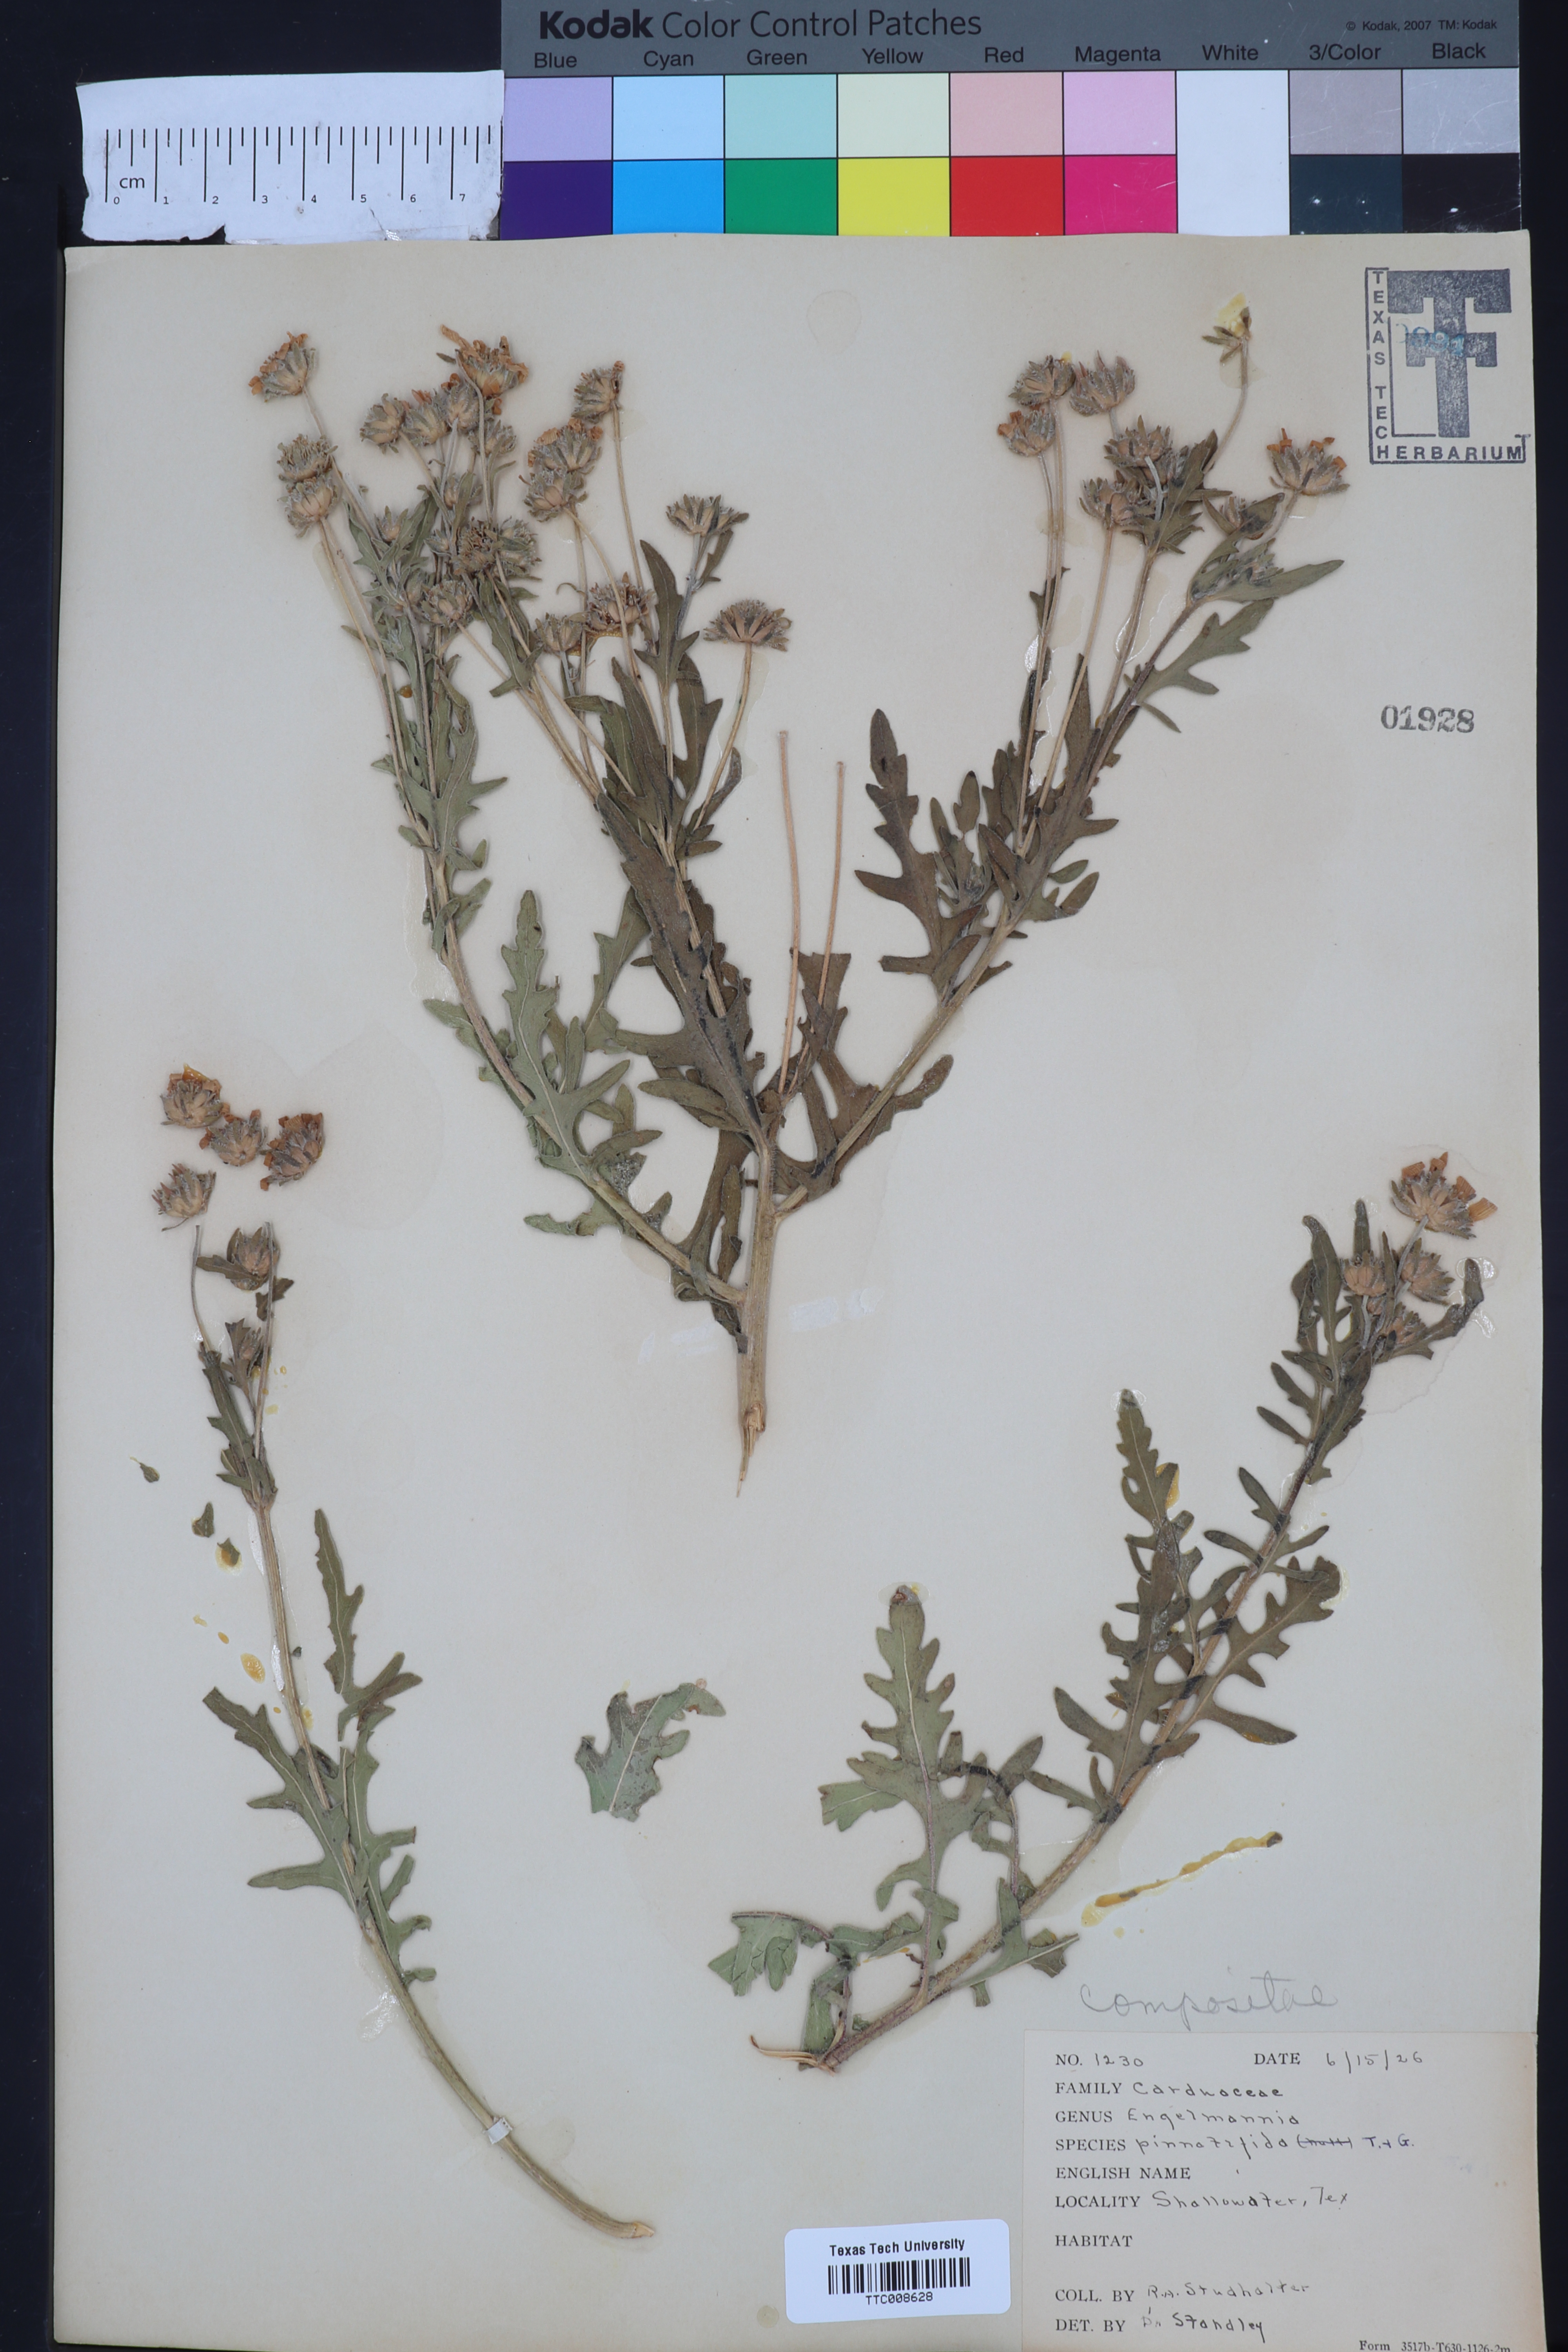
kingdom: Plantae
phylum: Tracheophyta
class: Magnoliopsida
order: Asterales
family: Asteraceae
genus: Engelmannia
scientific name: Engelmannia peristenia
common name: Engelmann's daisy
